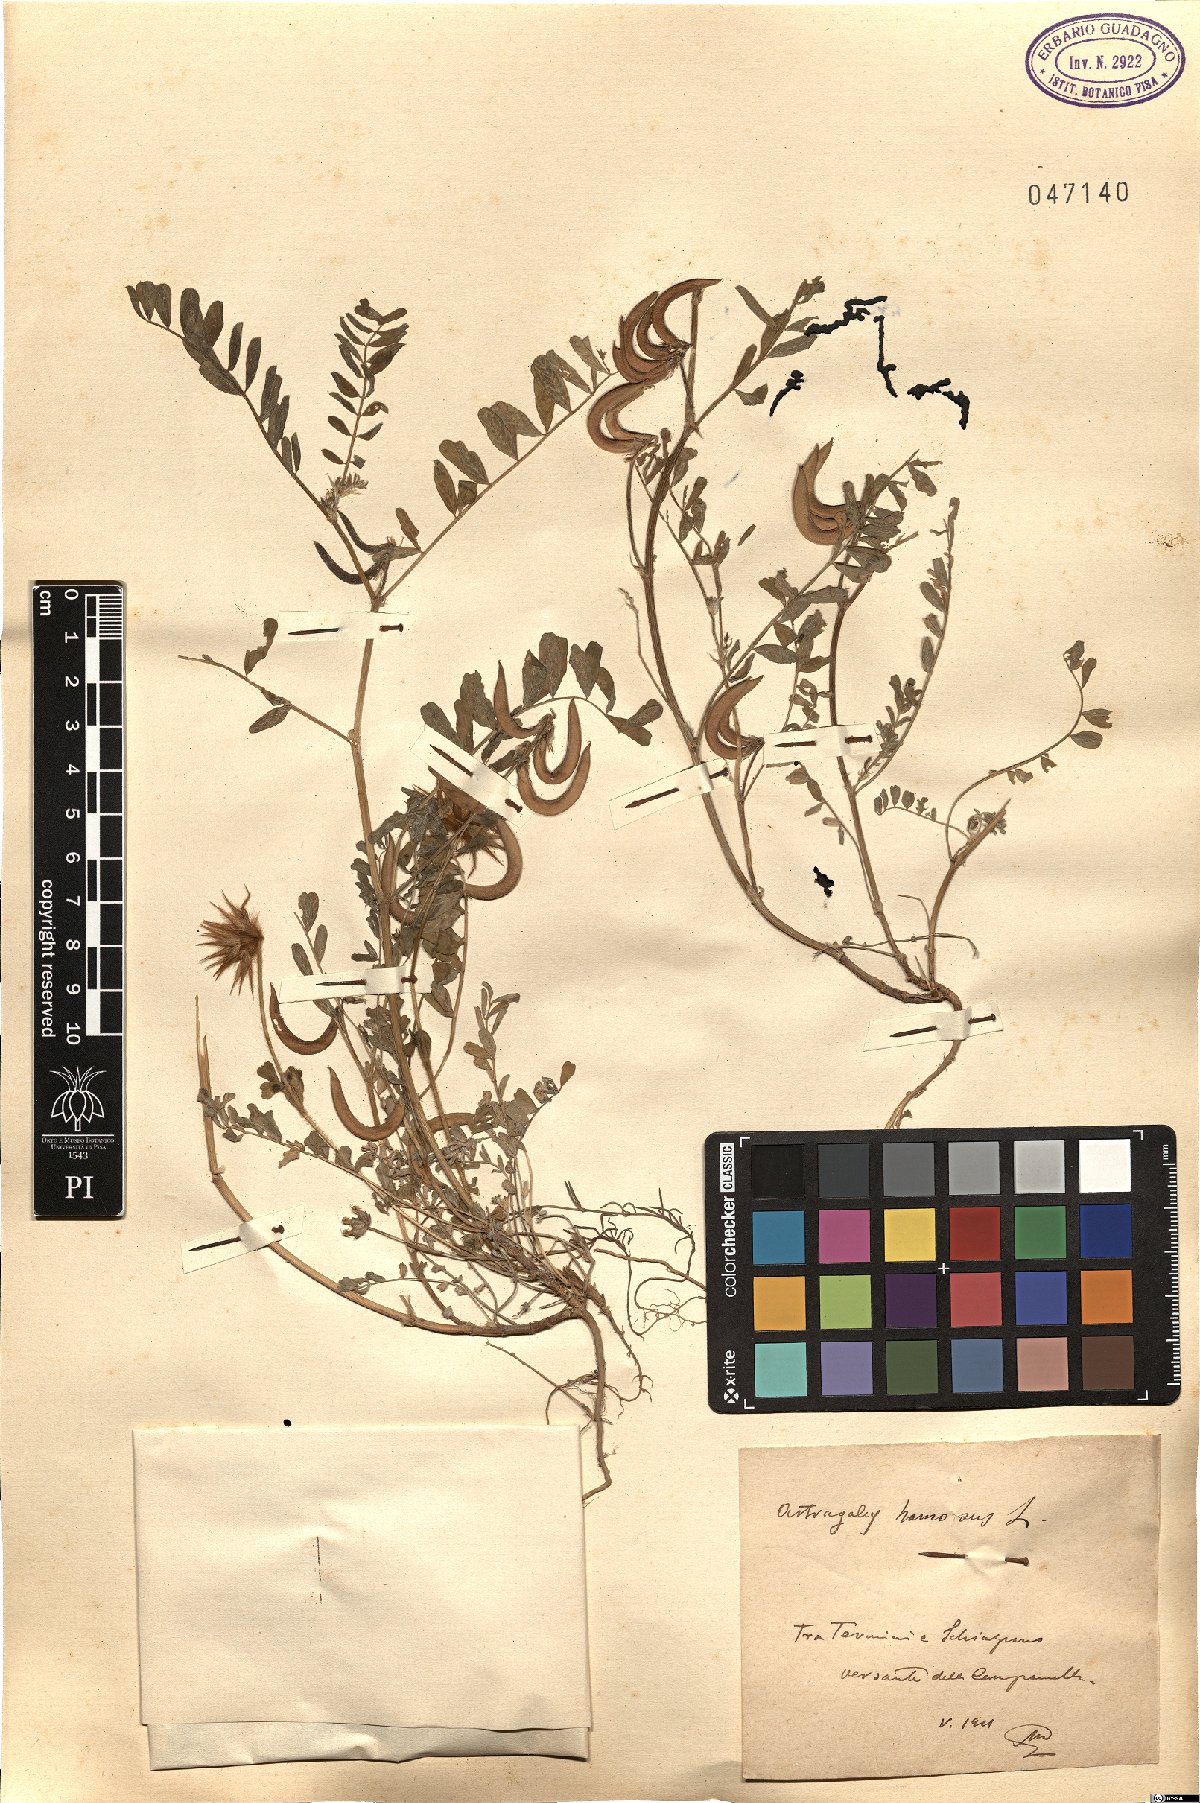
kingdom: Plantae
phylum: Tracheophyta
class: Magnoliopsida
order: Fabales
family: Fabaceae
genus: Astragalus
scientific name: Astragalus hamosus
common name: European milkvetch
